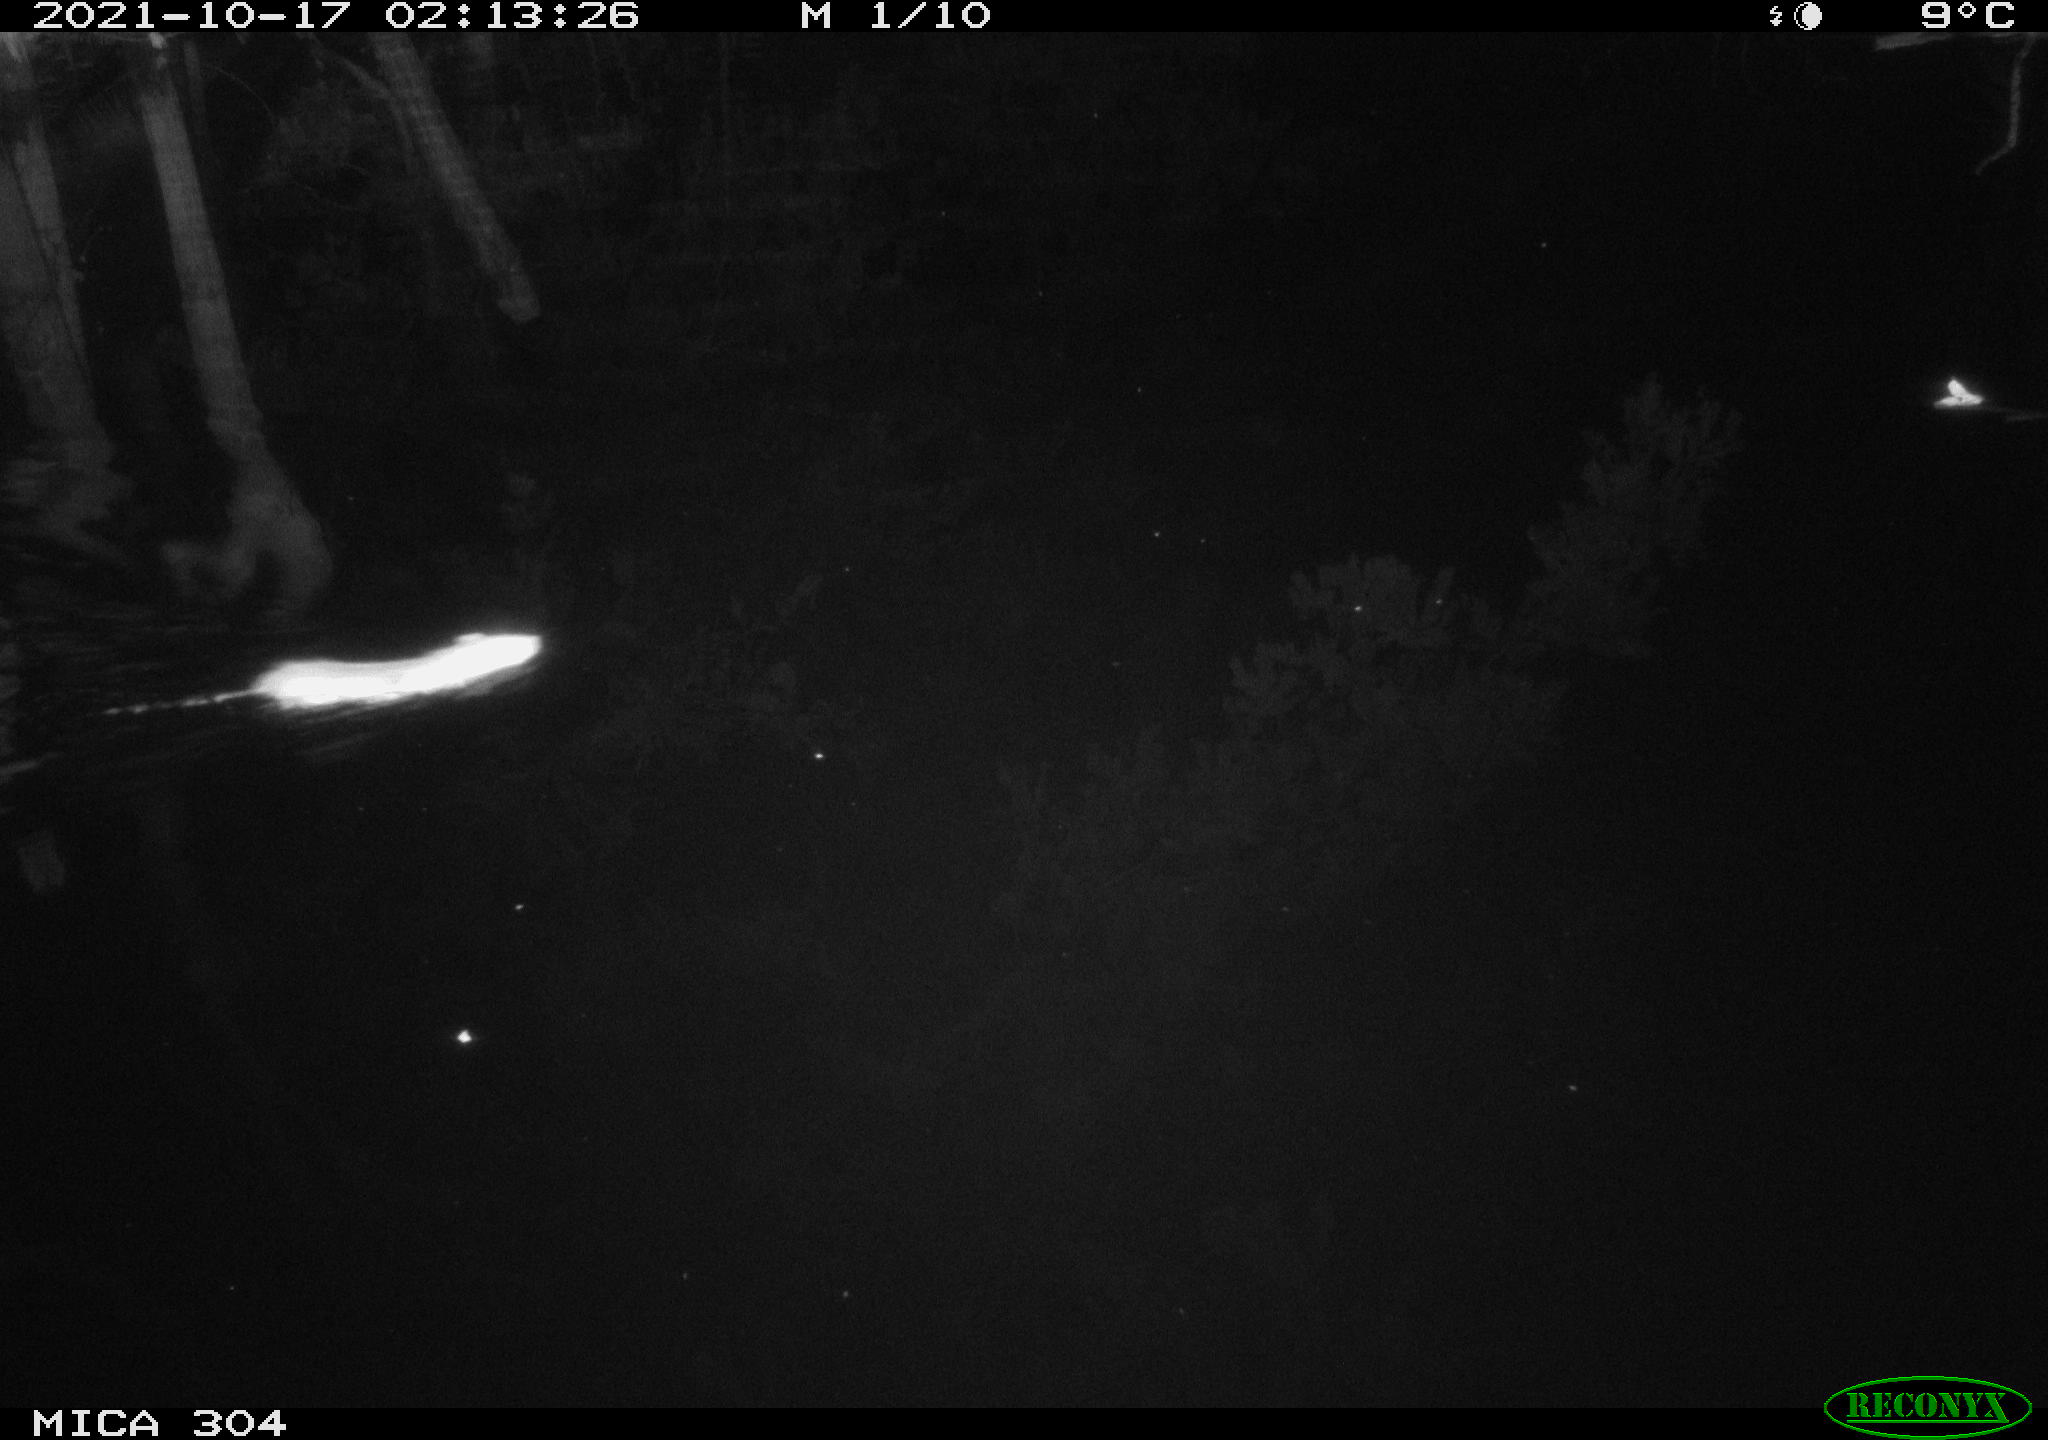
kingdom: Animalia
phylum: Chordata
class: Mammalia
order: Rodentia
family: Muridae
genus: Rattus
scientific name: Rattus norvegicus
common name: Brown rat
